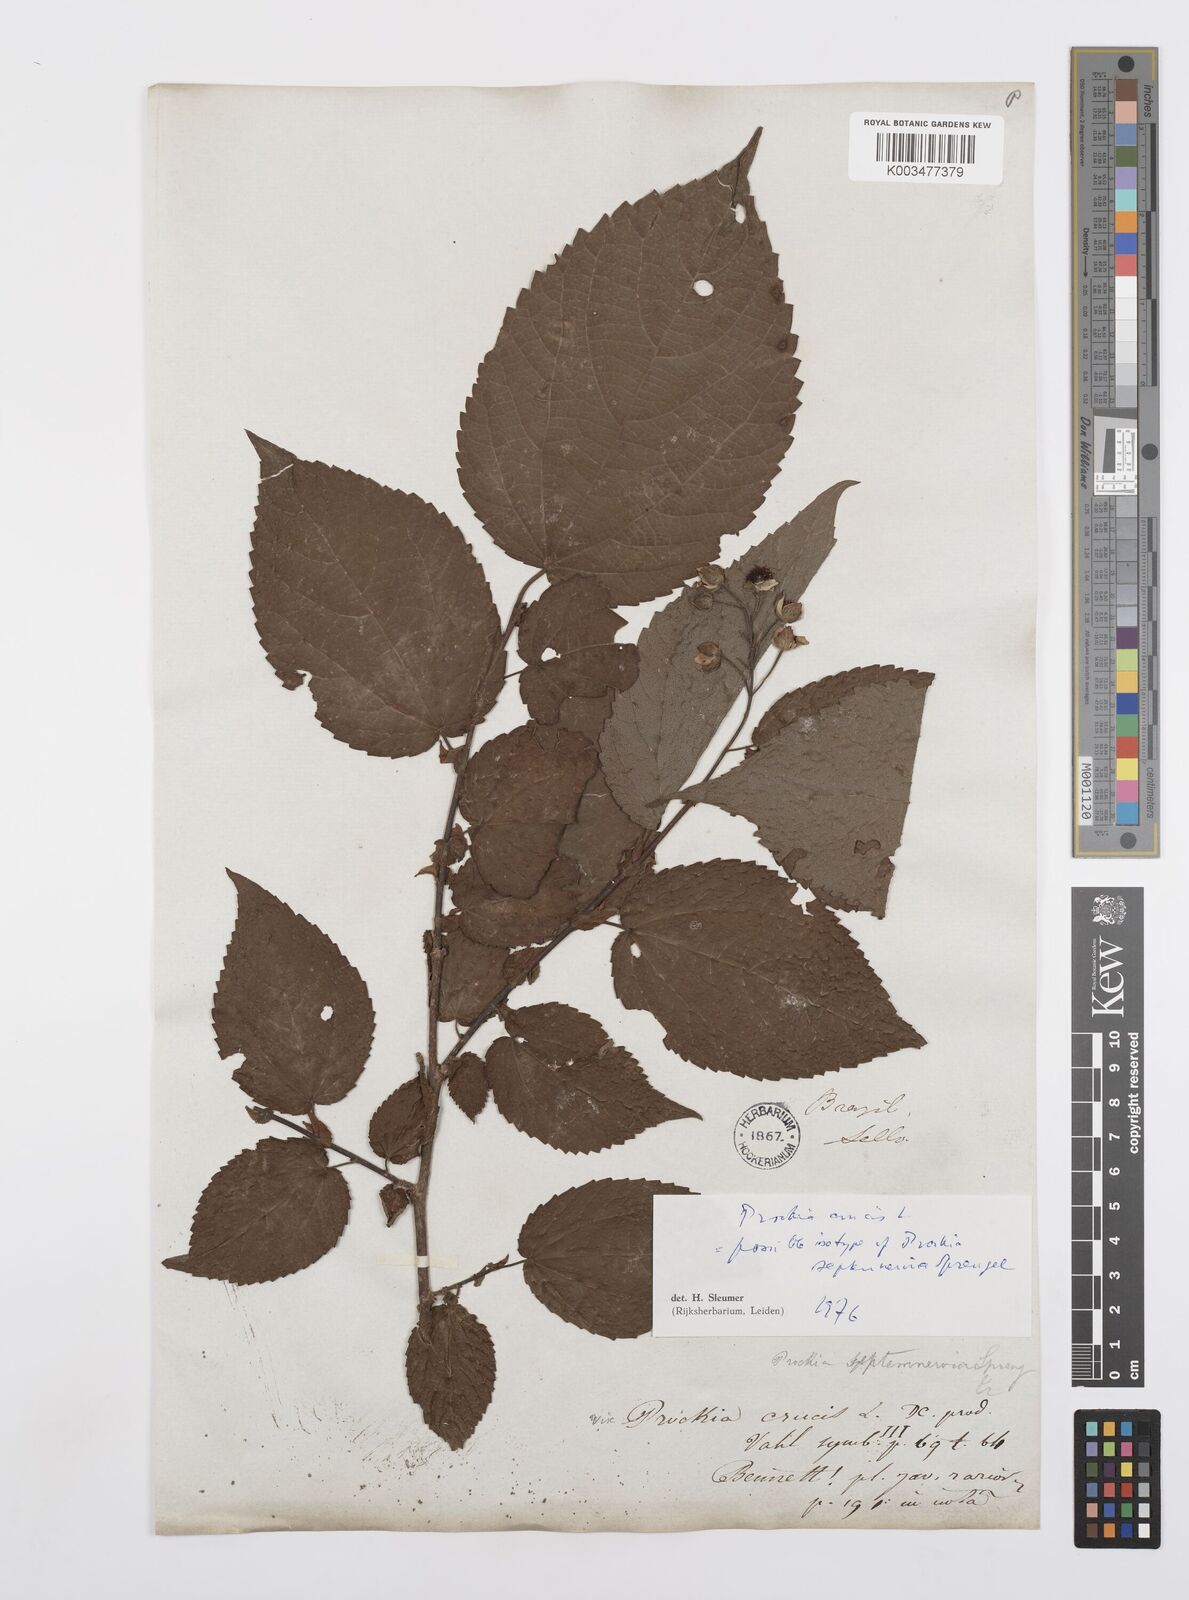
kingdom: Plantae
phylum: Tracheophyta
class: Magnoliopsida
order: Malpighiales
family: Salicaceae
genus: Prockia
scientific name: Prockia crucis
